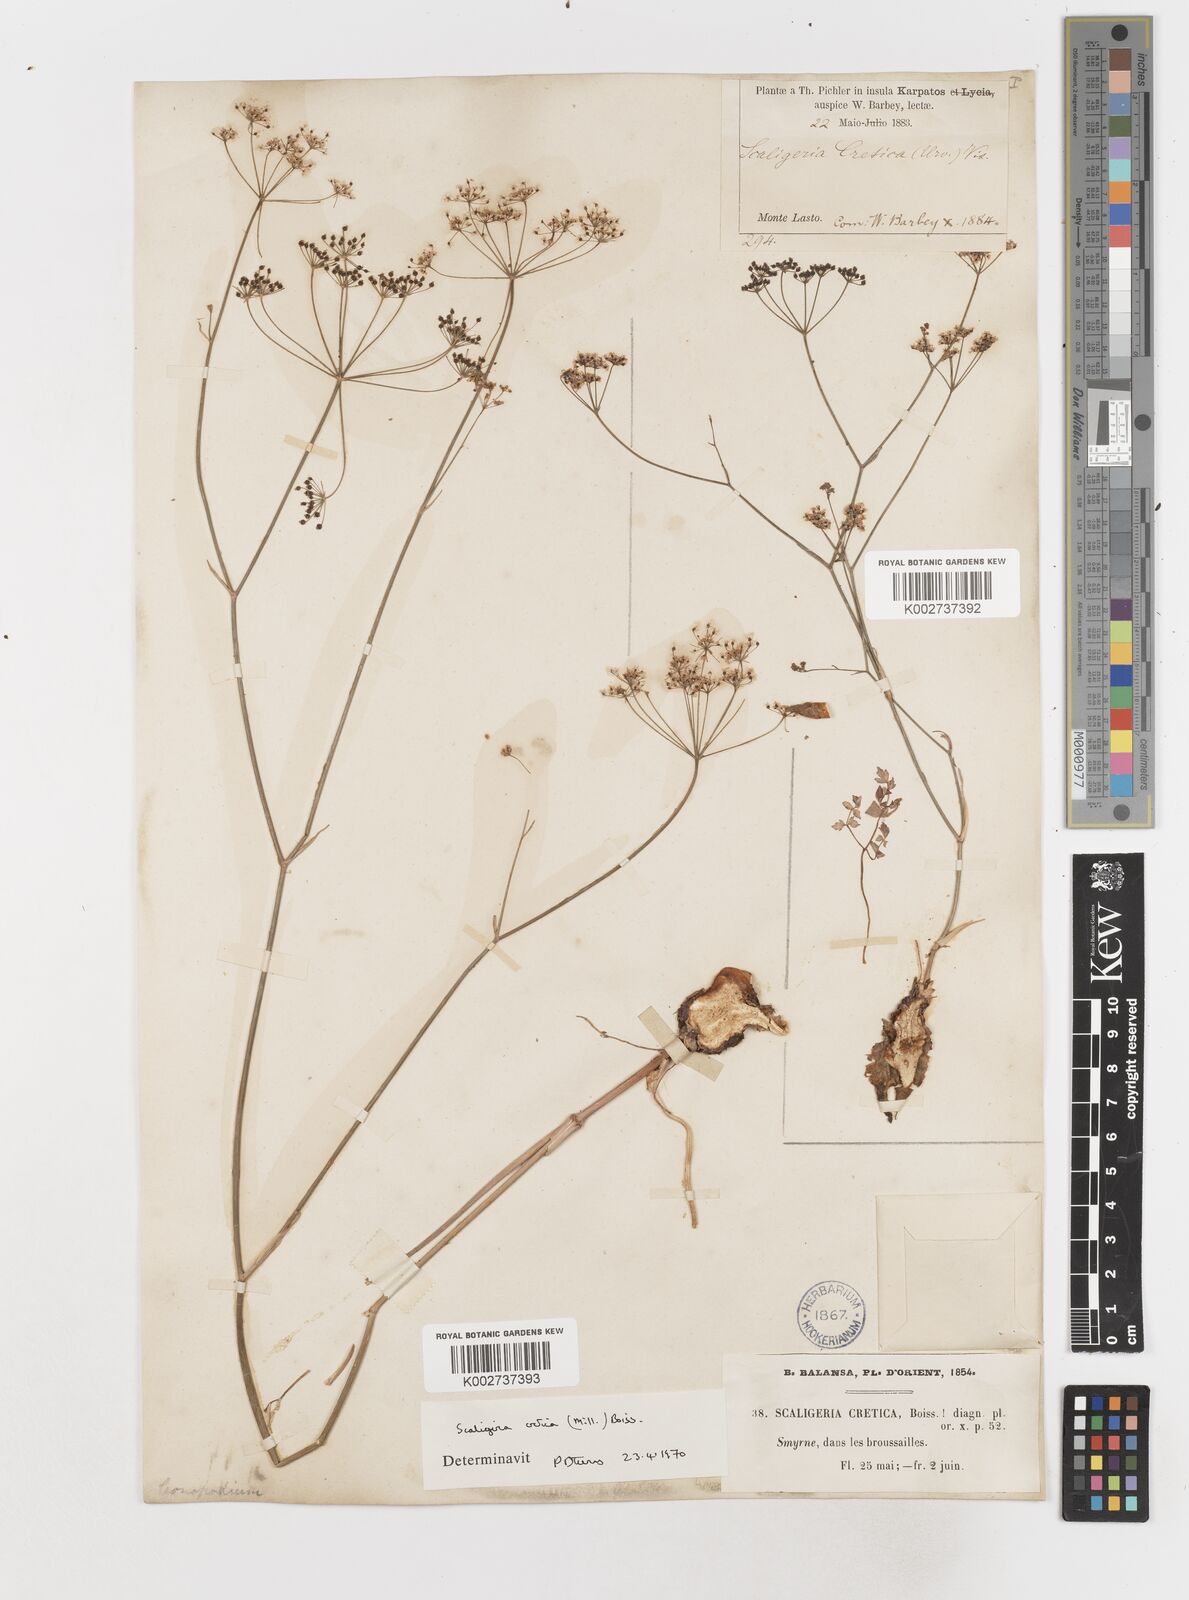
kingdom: Plantae
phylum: Tracheophyta
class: Magnoliopsida
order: Apiales
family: Apiaceae
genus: Scaligeria
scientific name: Scaligeria
